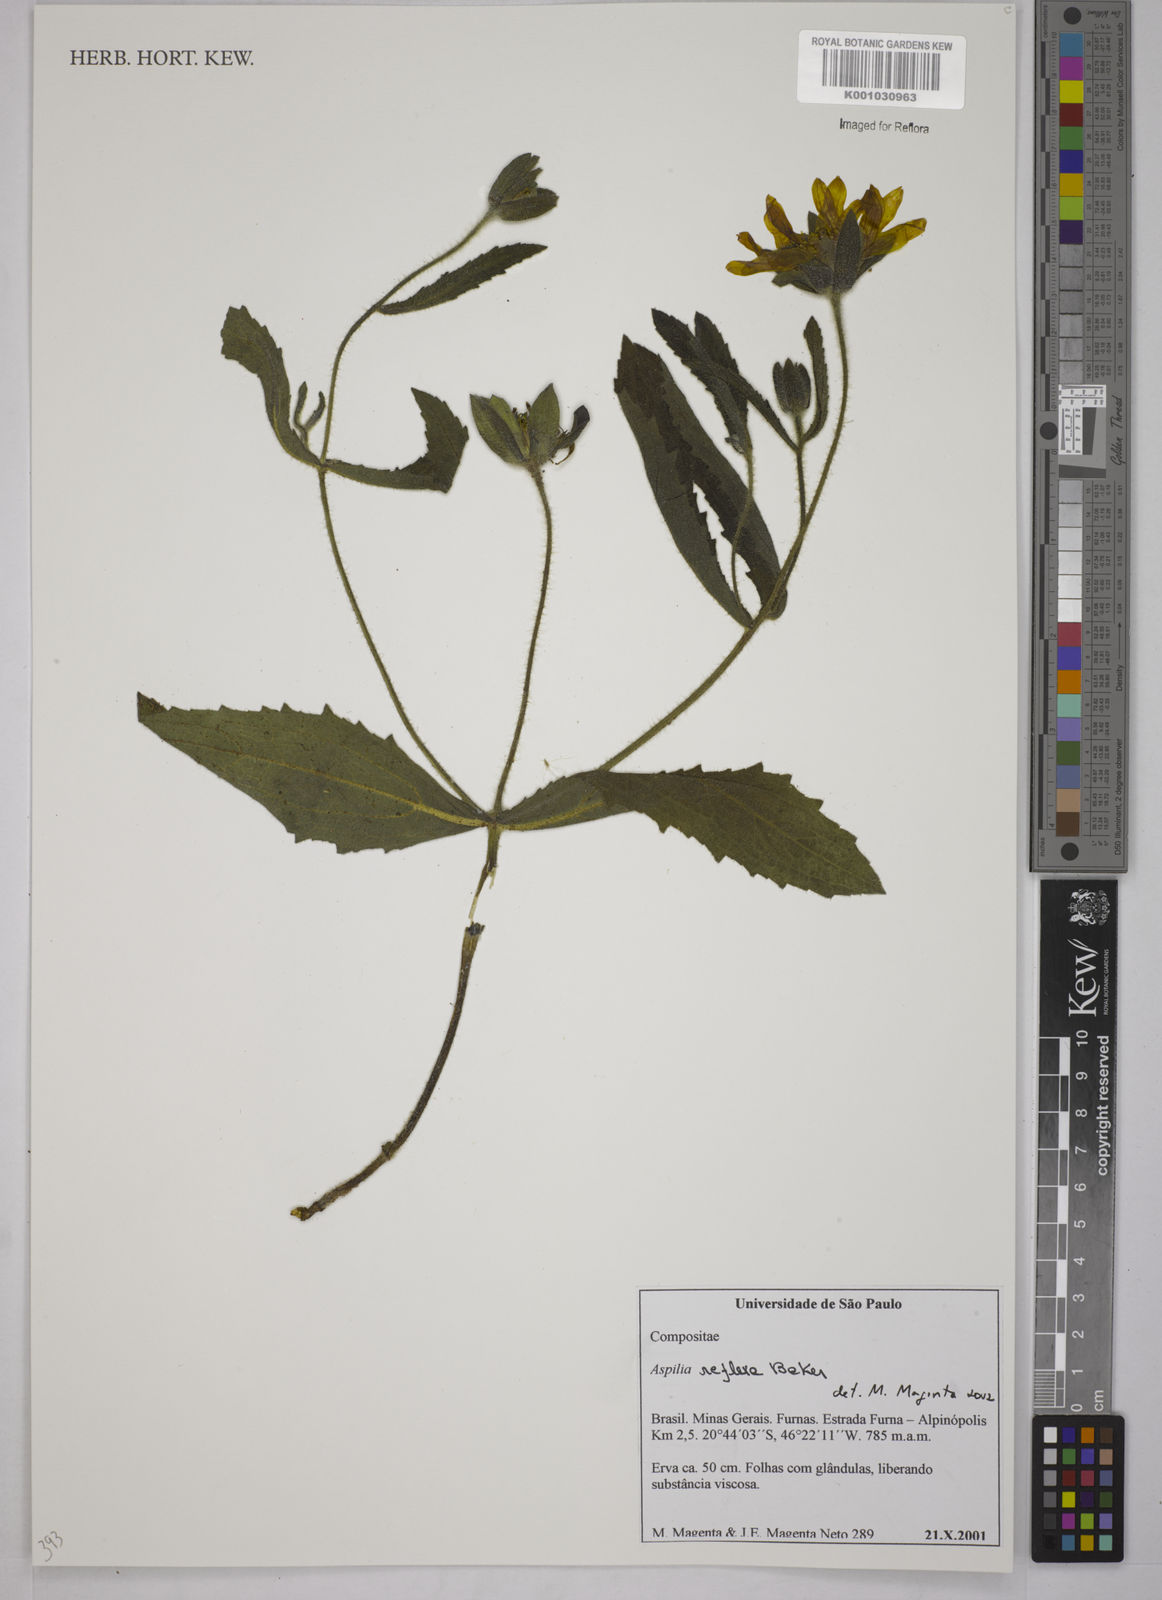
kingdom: Plantae
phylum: Tracheophyta
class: Magnoliopsida
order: Asterales
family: Asteraceae
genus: Wedelia
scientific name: Wedelia reflexa
